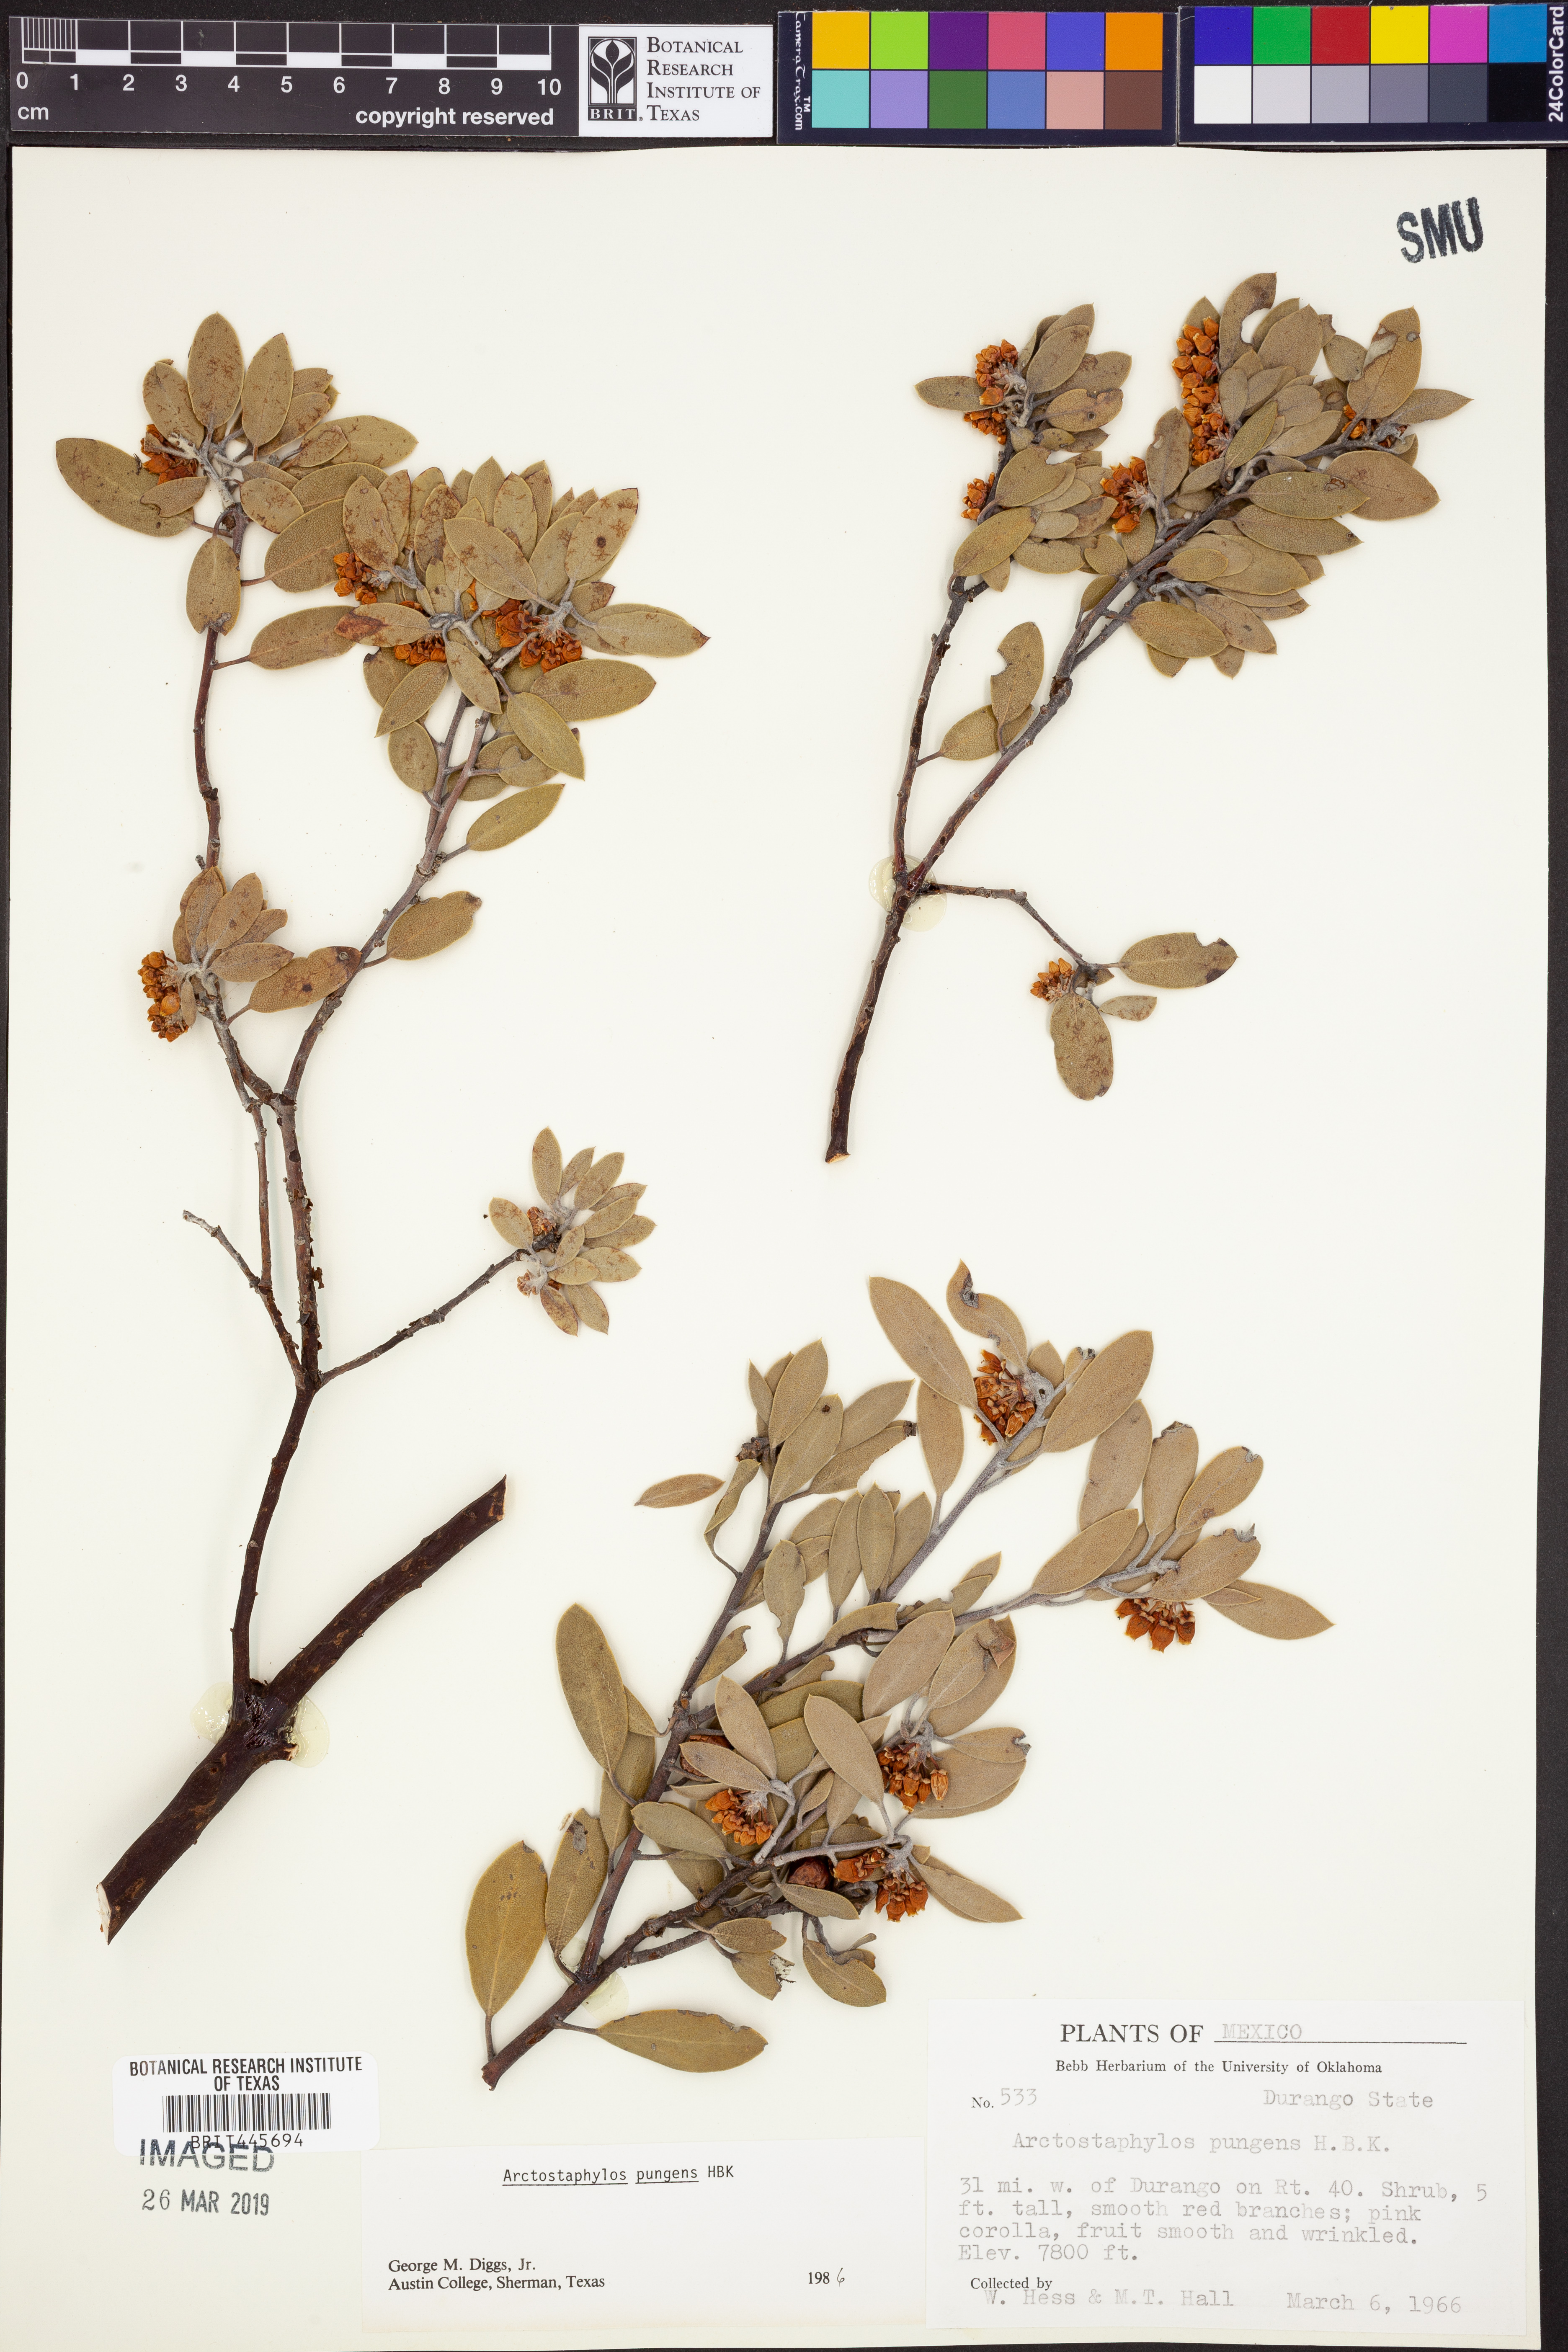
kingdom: Plantae
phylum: Tracheophyta
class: Magnoliopsida
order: Ericales
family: Ericaceae
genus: Arctostaphylos
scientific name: Arctostaphylos pungens
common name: Mexican manzanita
